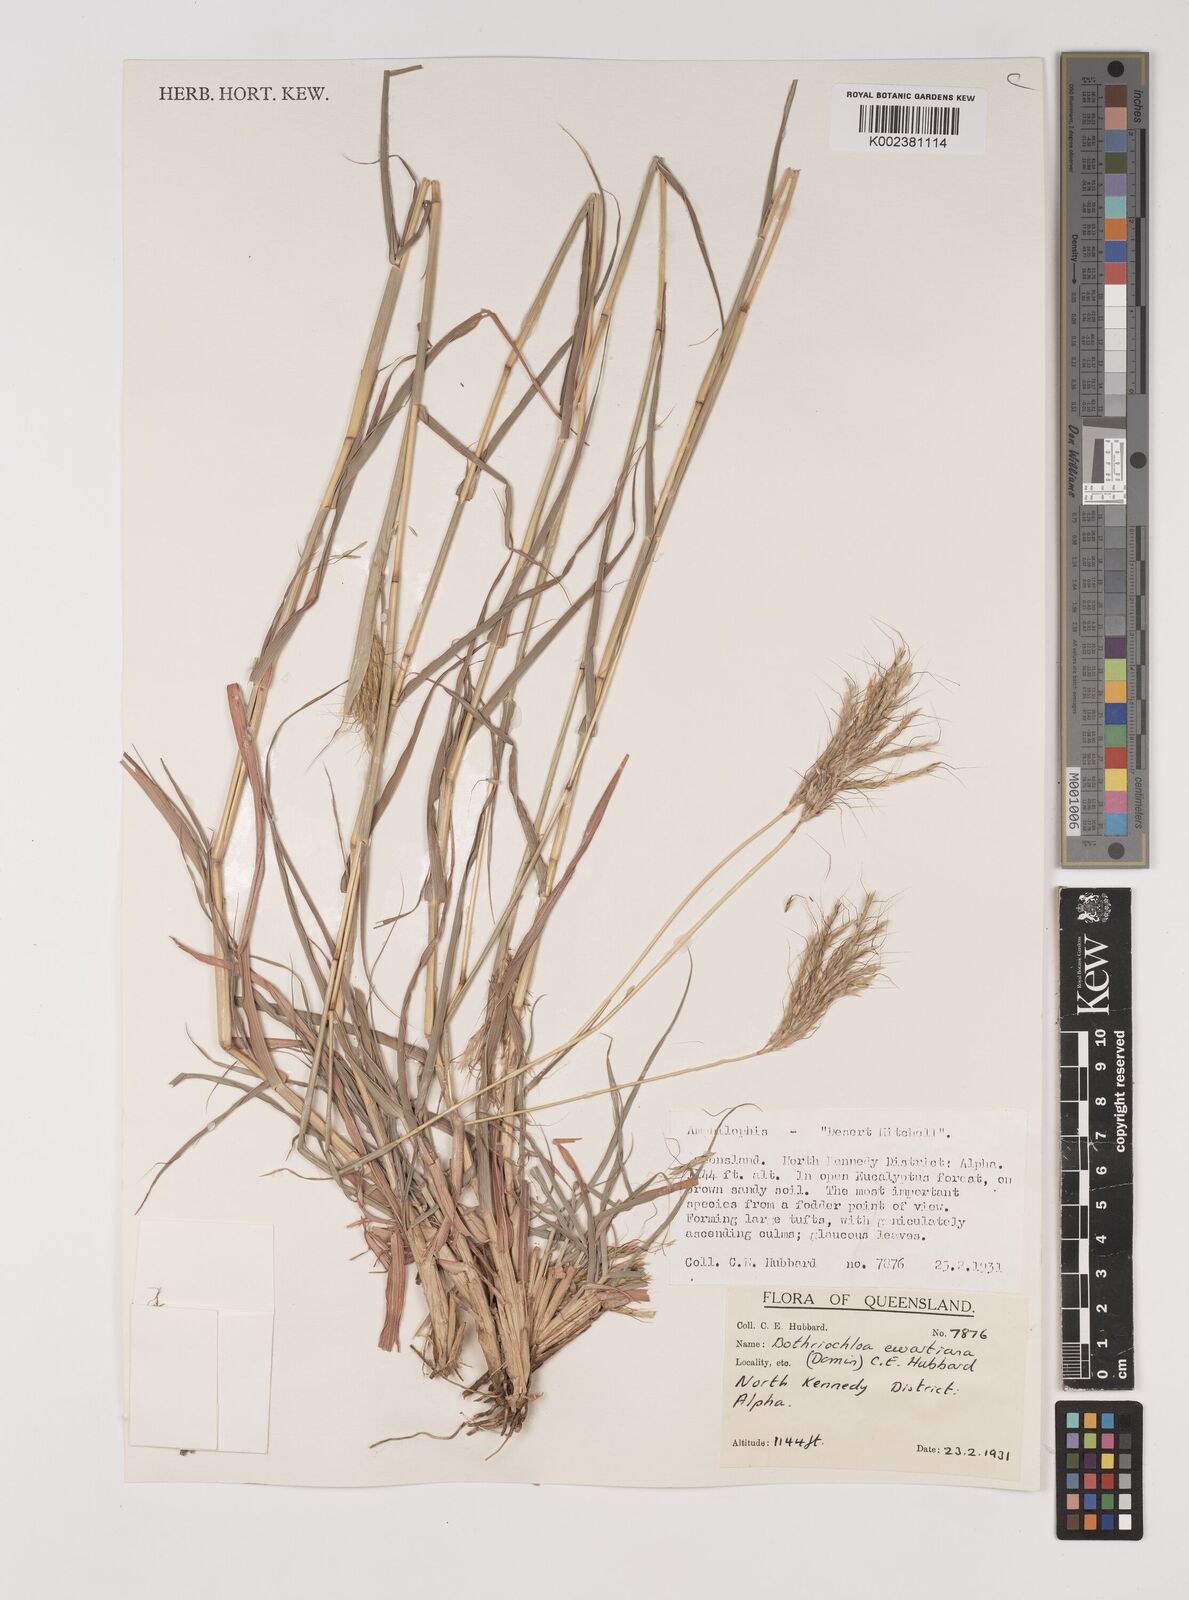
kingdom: Plantae
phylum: Tracheophyta
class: Liliopsida
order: Poales
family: Poaceae
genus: Bothriochloa
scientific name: Bothriochloa ewartiana
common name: Desert-bluegrass
